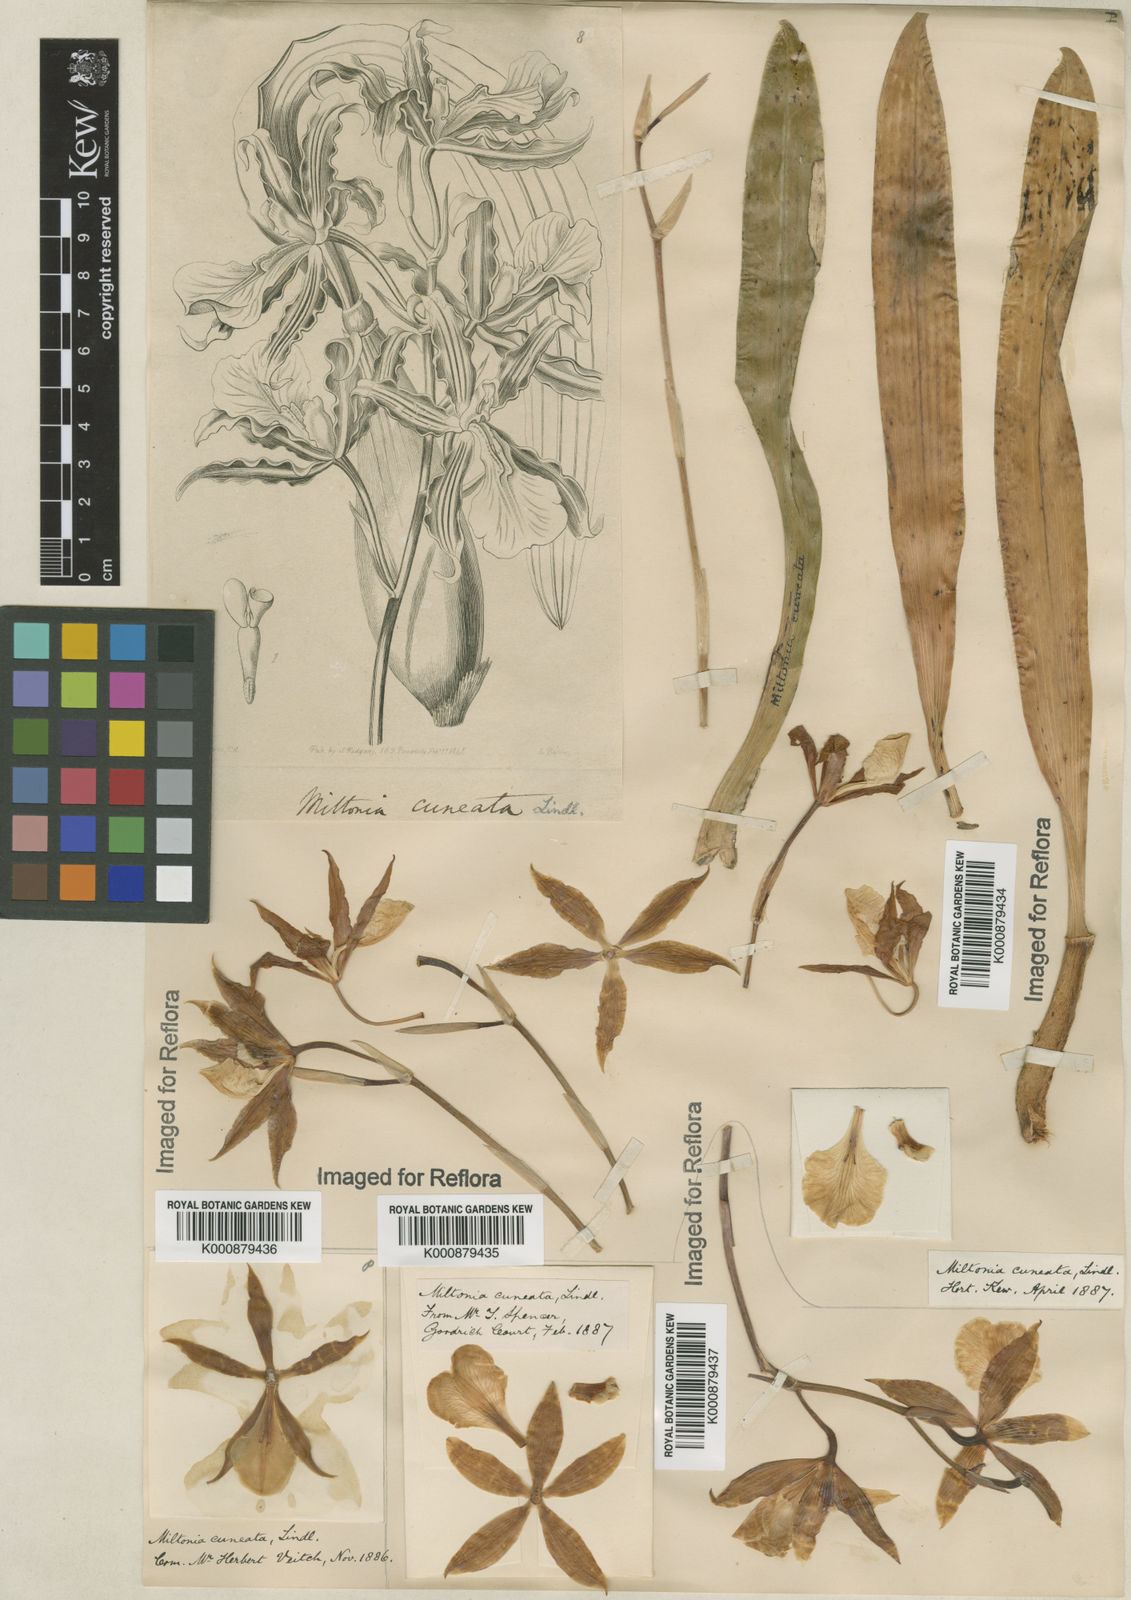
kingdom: Plantae
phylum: Tracheophyta
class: Liliopsida
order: Asparagales
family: Orchidaceae
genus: Miltonia
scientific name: Miltonia cuneata
